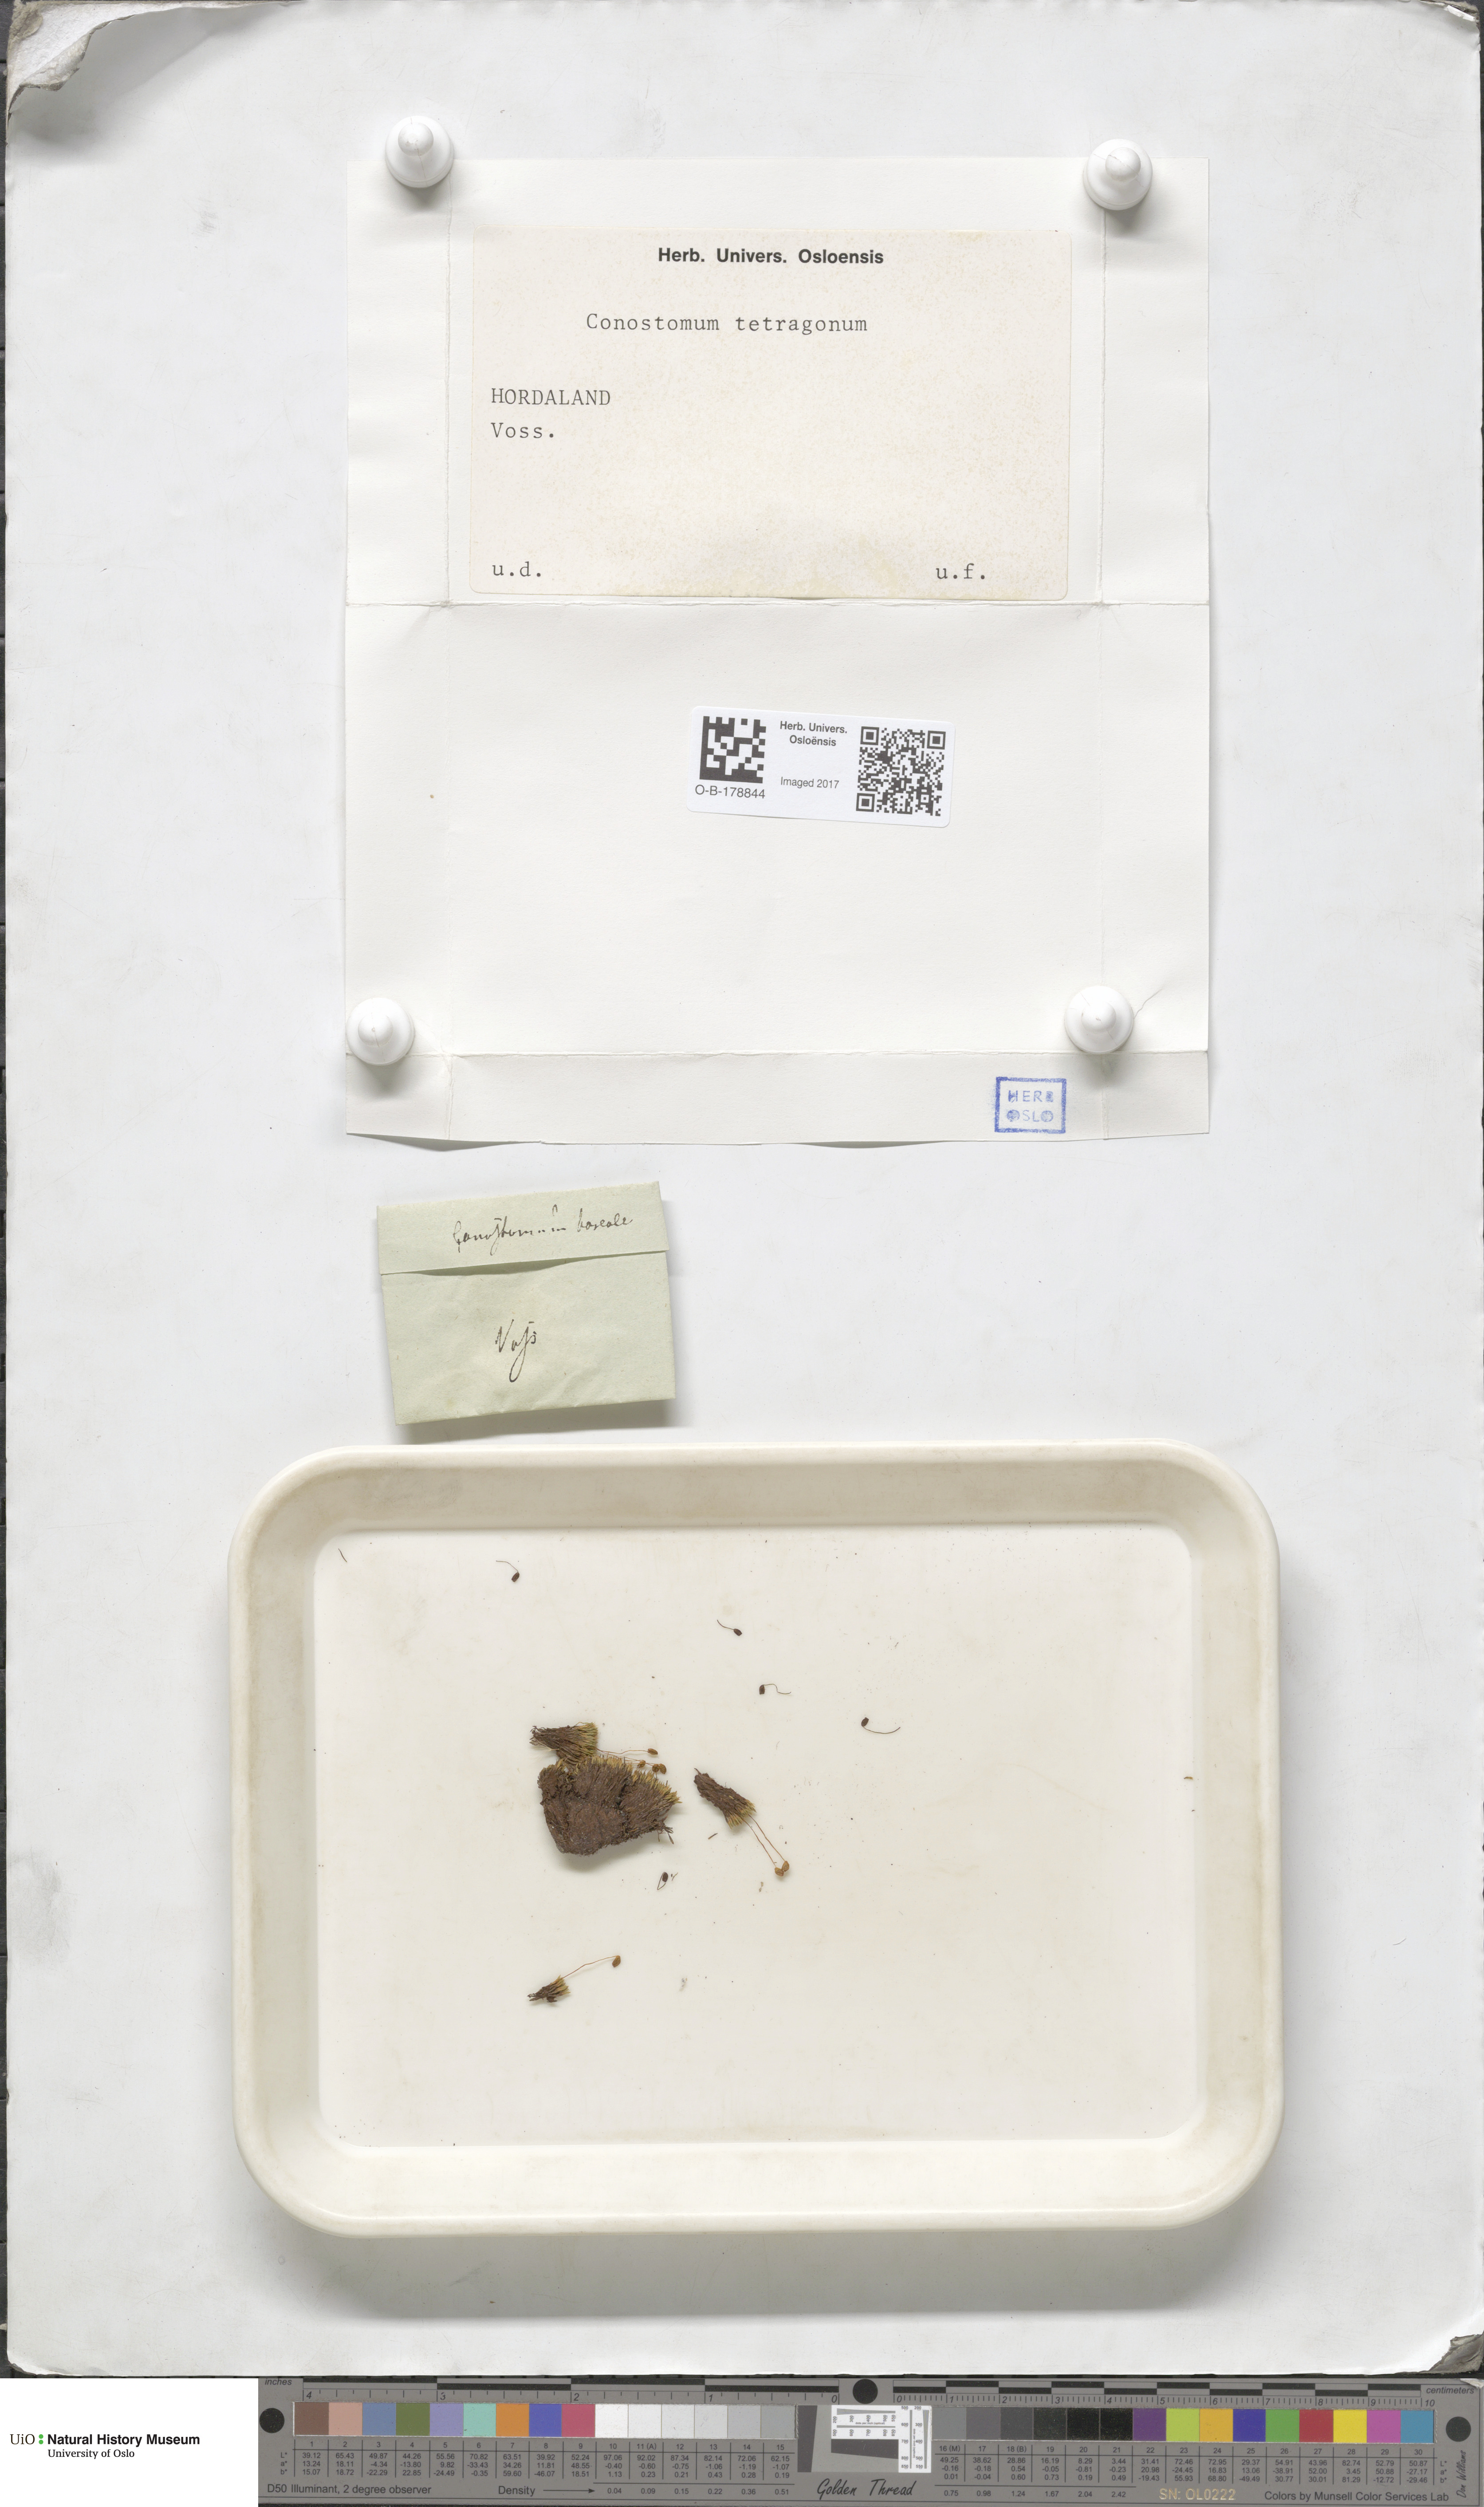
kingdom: Plantae
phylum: Bryophyta
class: Bryopsida
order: Bartramiales
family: Bartramiaceae
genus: Conostomum
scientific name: Conostomum tetragonum
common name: Helmet moss
